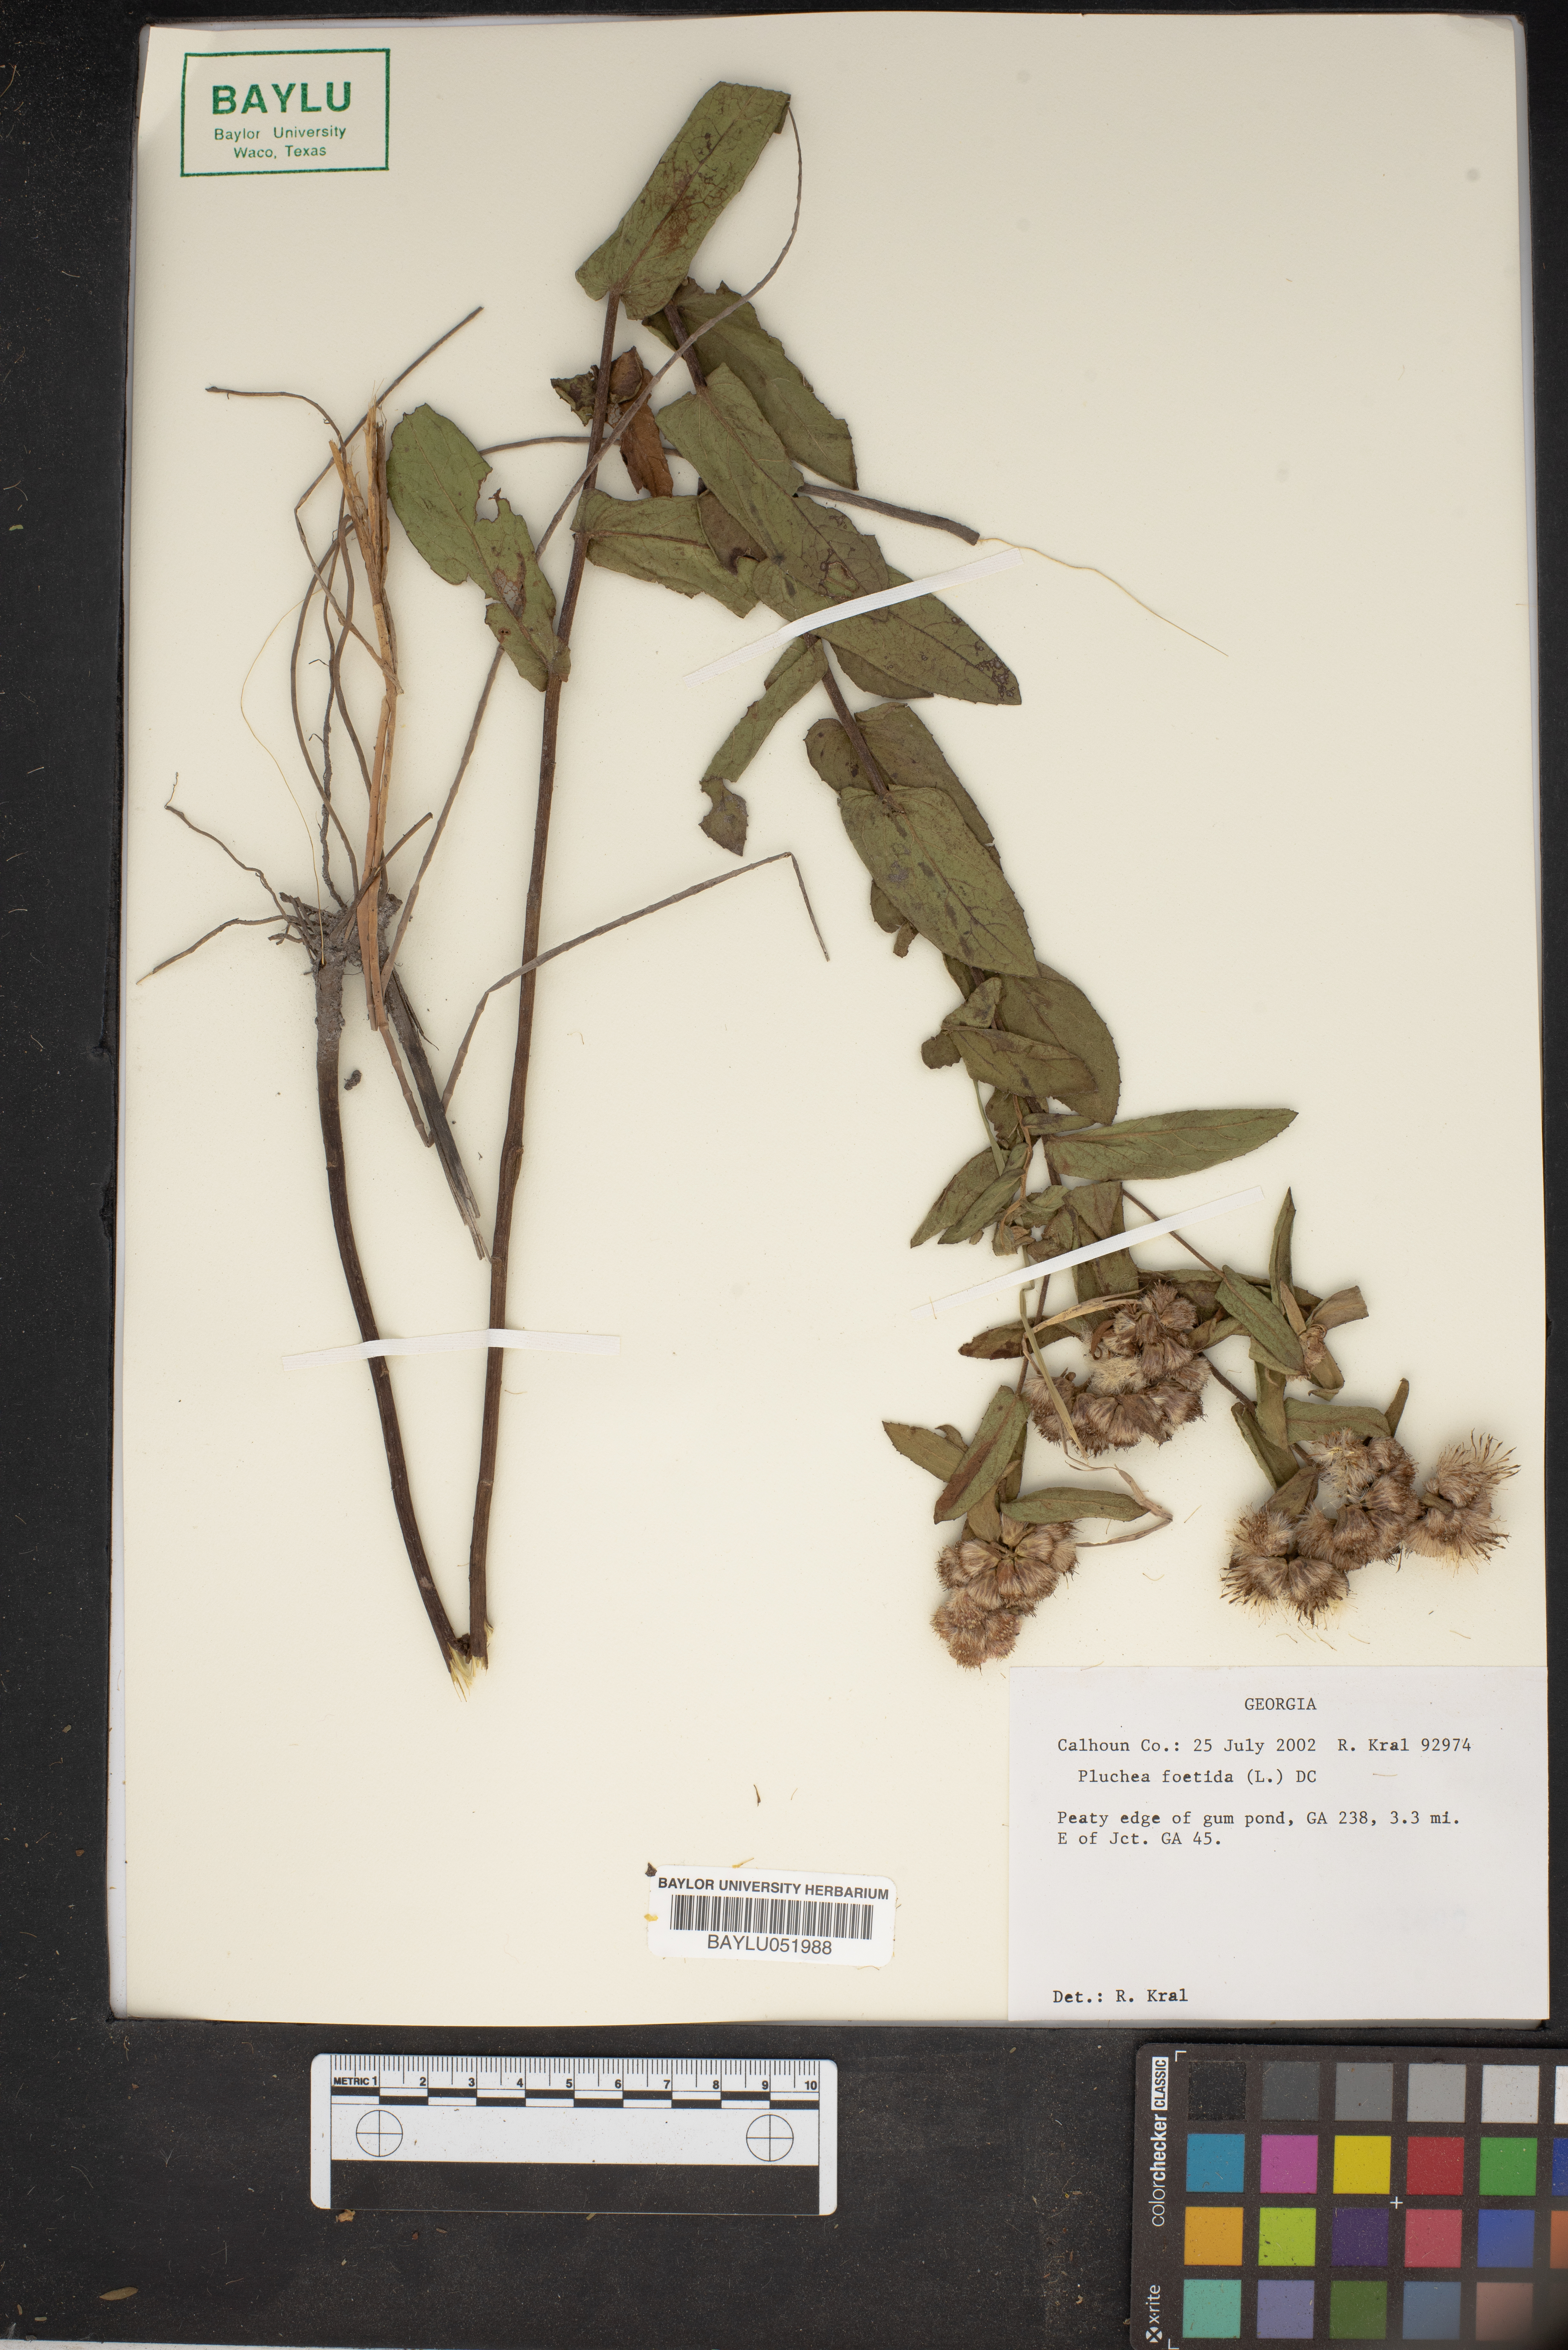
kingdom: Plantae
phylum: Tracheophyta
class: Magnoliopsida
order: Asterales
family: Asteraceae
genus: Pluchea
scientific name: Pluchea foetida
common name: Stinking camphorweed
